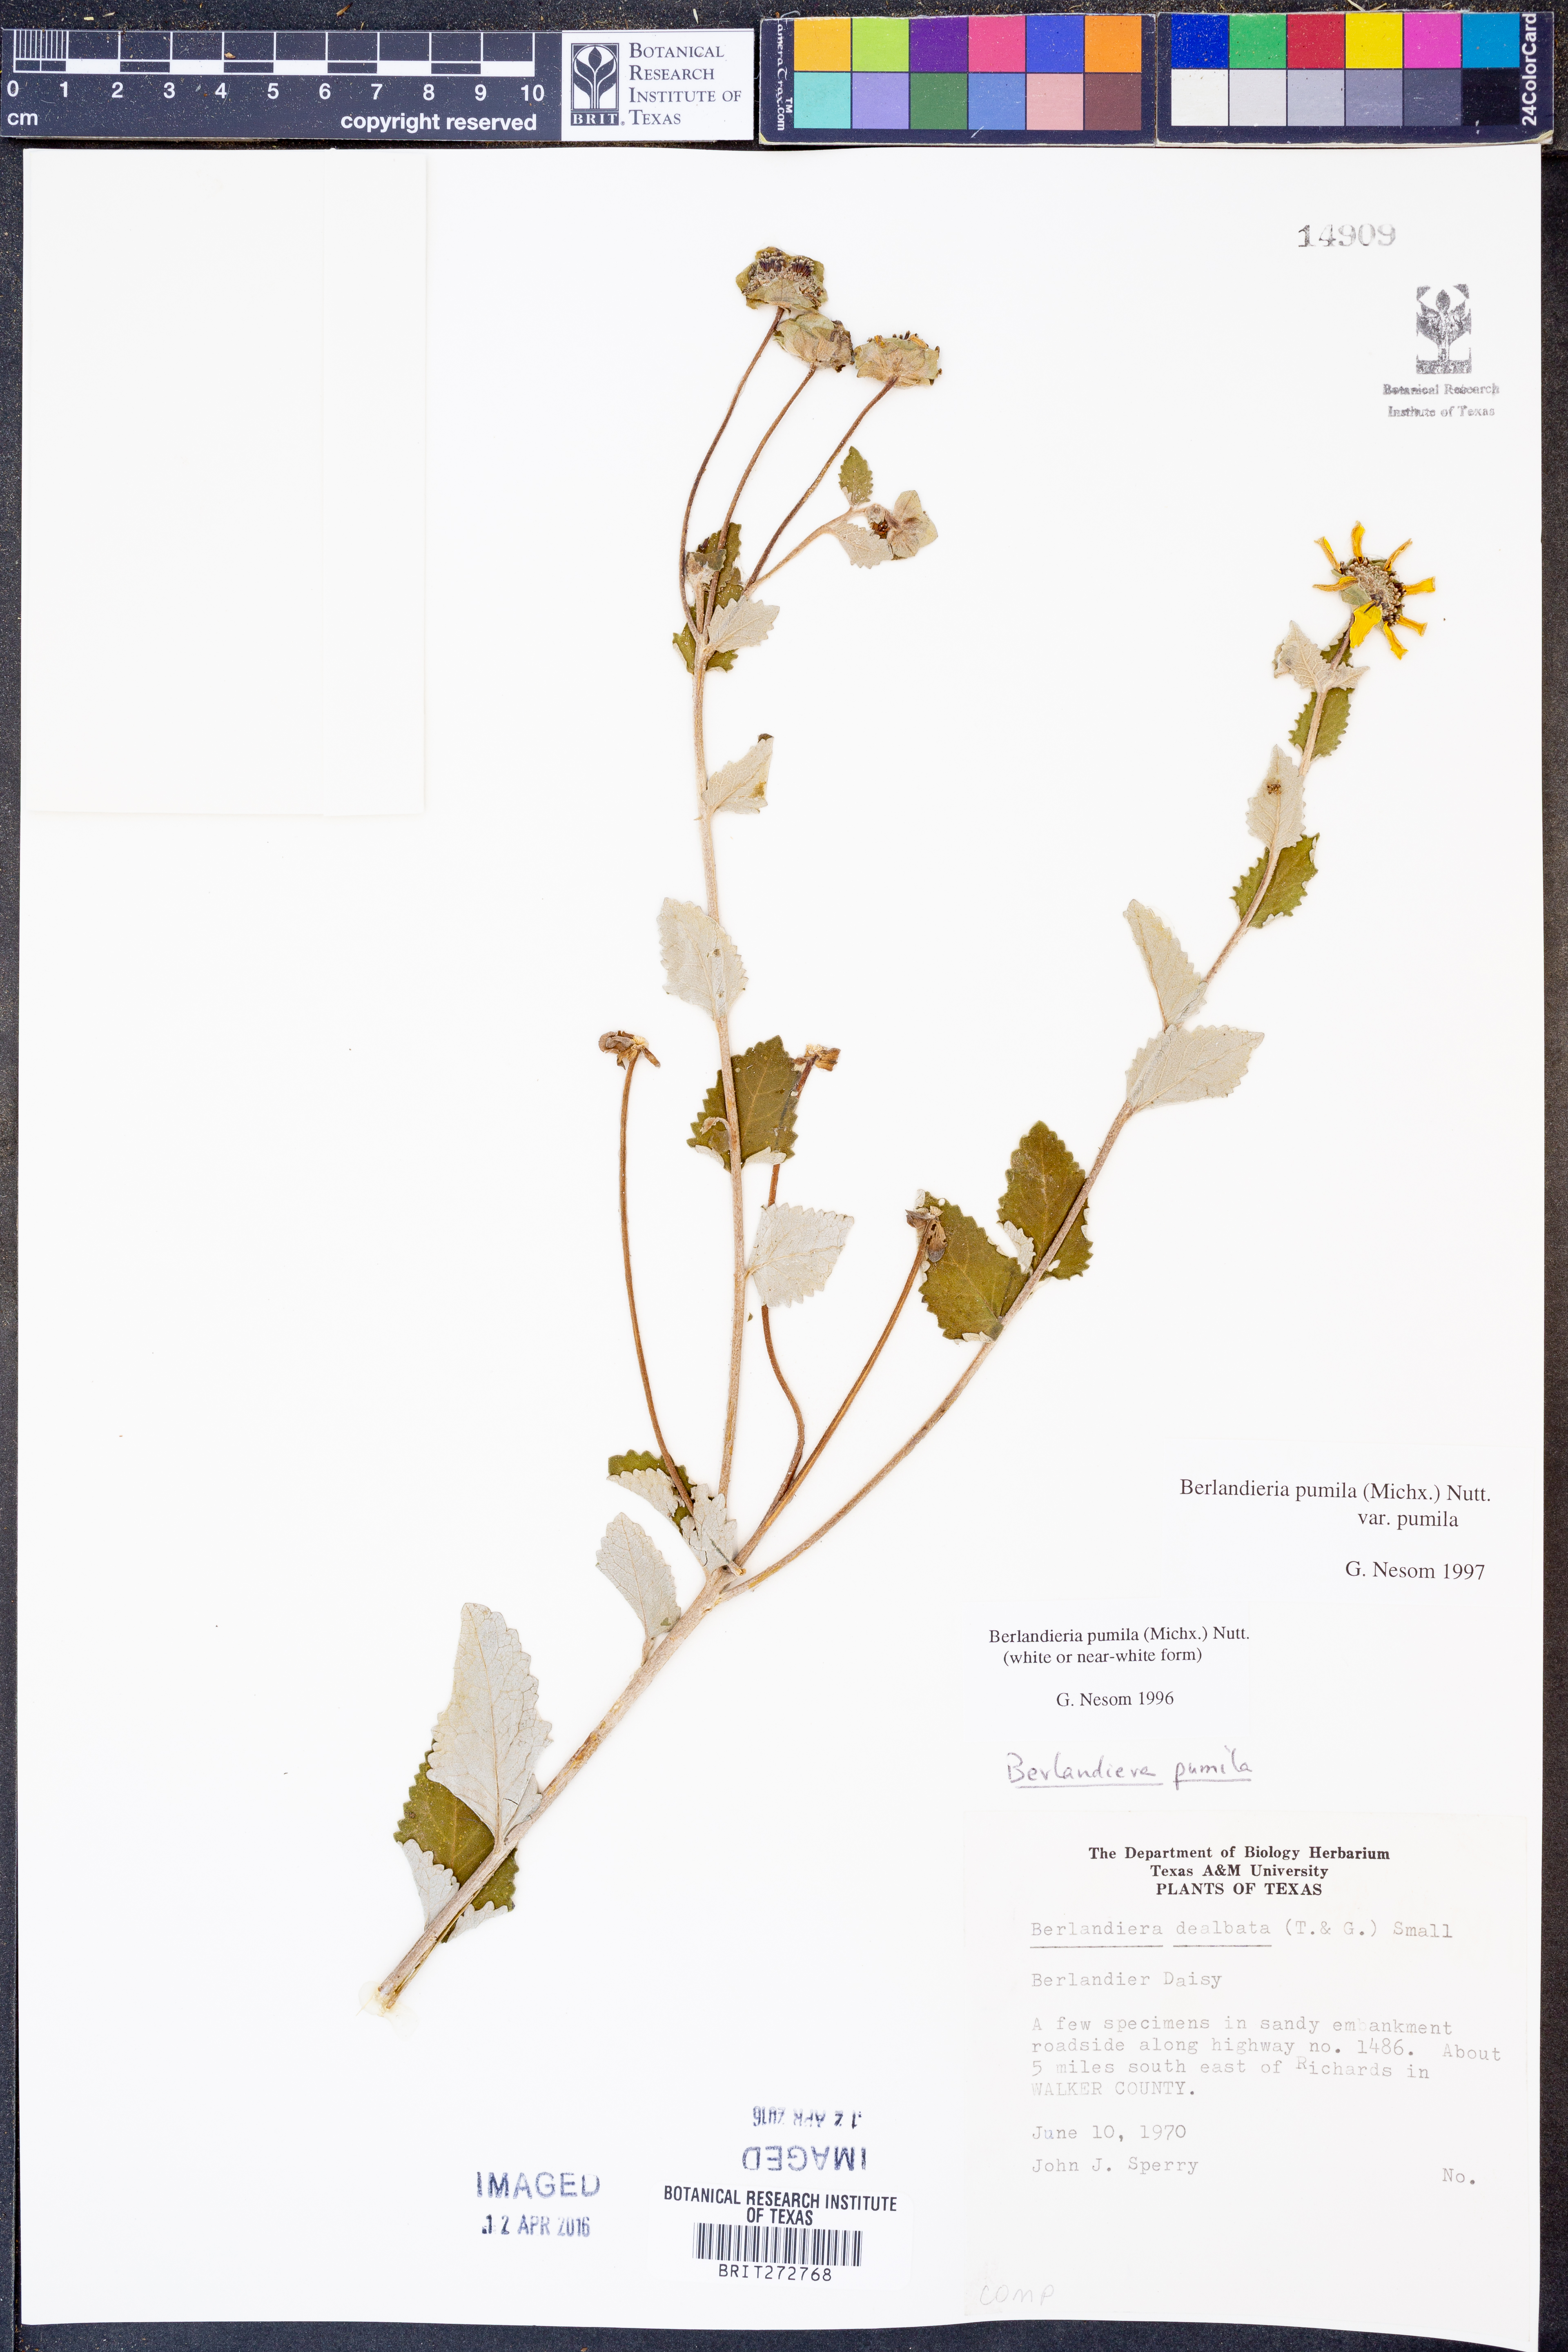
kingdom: Plantae
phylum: Tracheophyta
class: Magnoliopsida
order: Asterales
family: Asteraceae
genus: Berlandiera
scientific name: Berlandiera pumila
